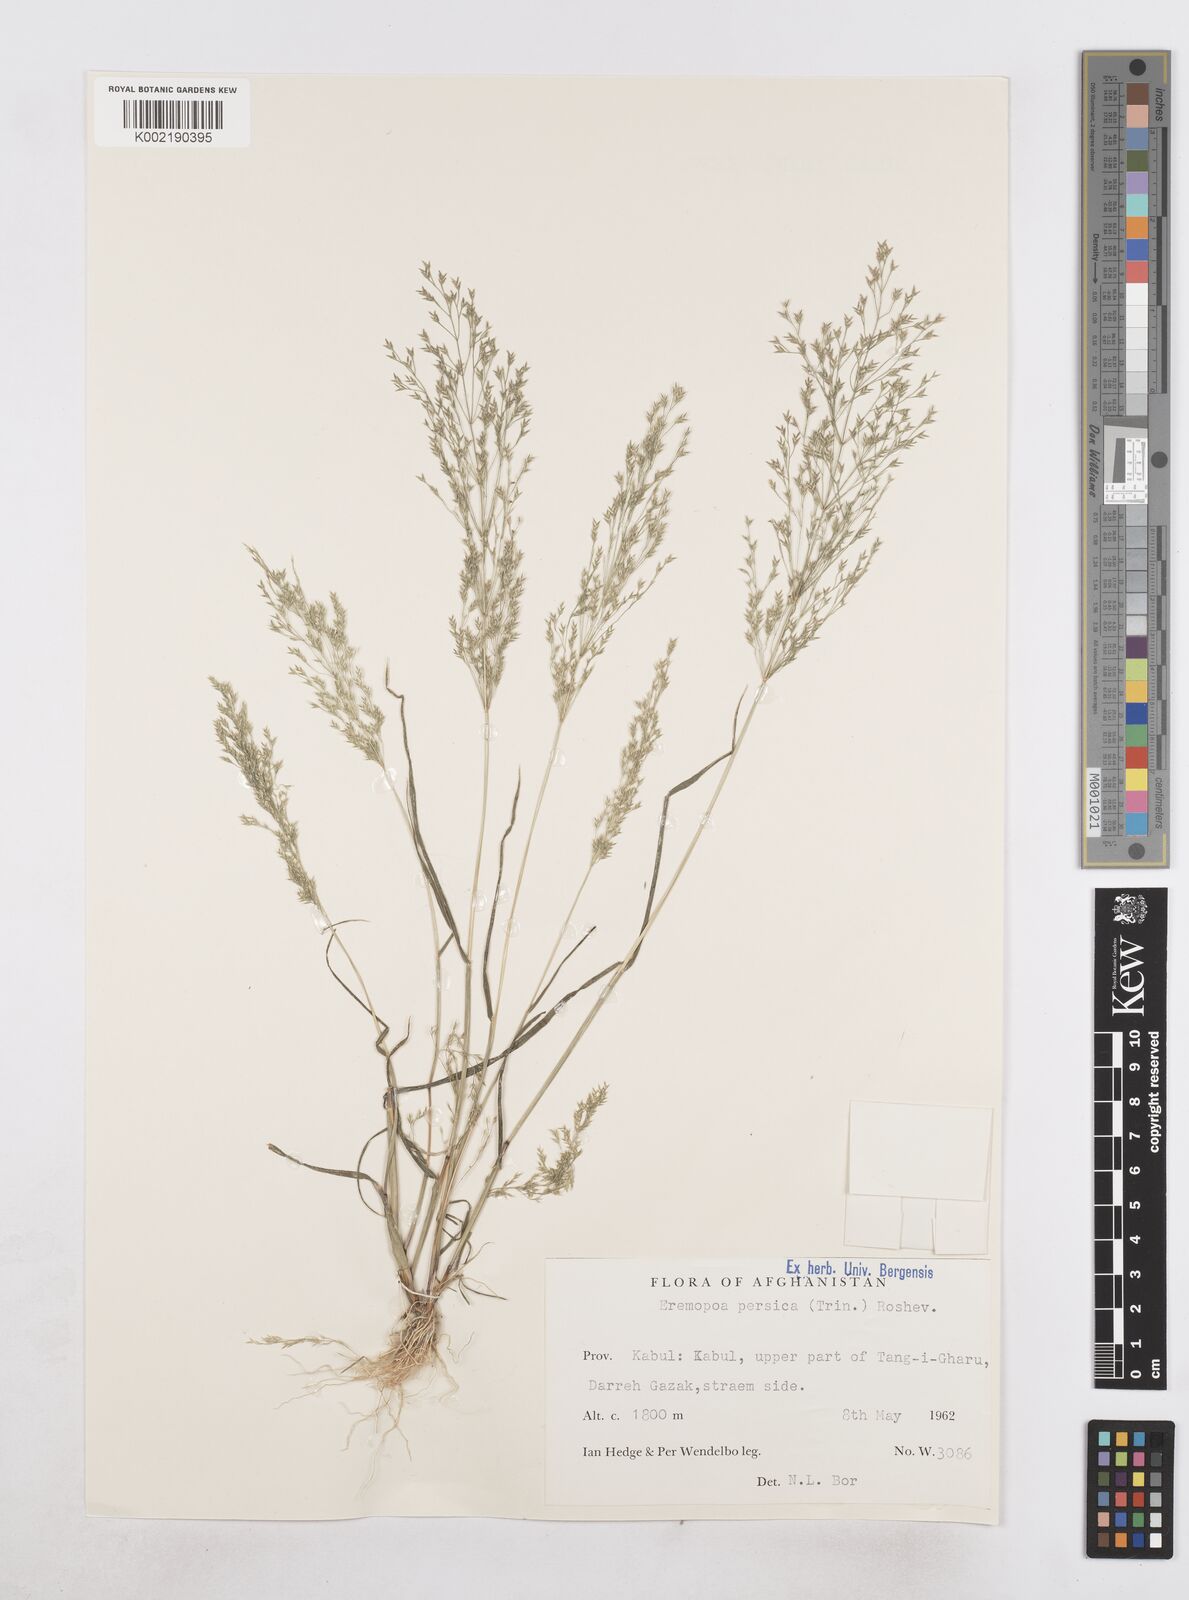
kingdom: Plantae
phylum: Tracheophyta
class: Liliopsida
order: Poales
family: Poaceae
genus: Poa
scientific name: Poa diaphora
